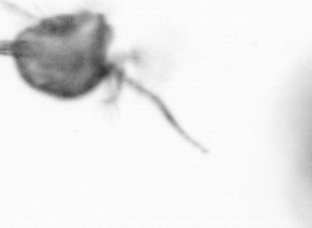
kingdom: Animalia
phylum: Arthropoda
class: Copepoda
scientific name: Copepoda
